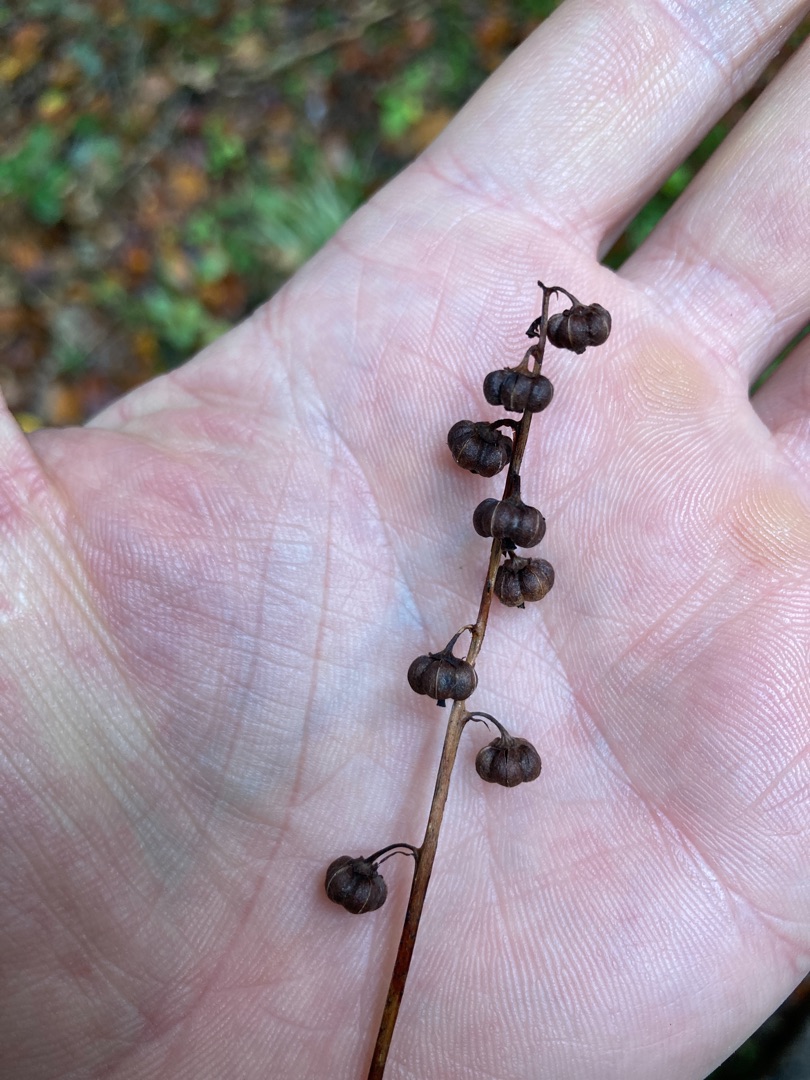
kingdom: Plantae
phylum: Tracheophyta
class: Magnoliopsida
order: Ericales
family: Ericaceae
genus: Pyrola
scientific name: Pyrola minor
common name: Liden vintergrøn
